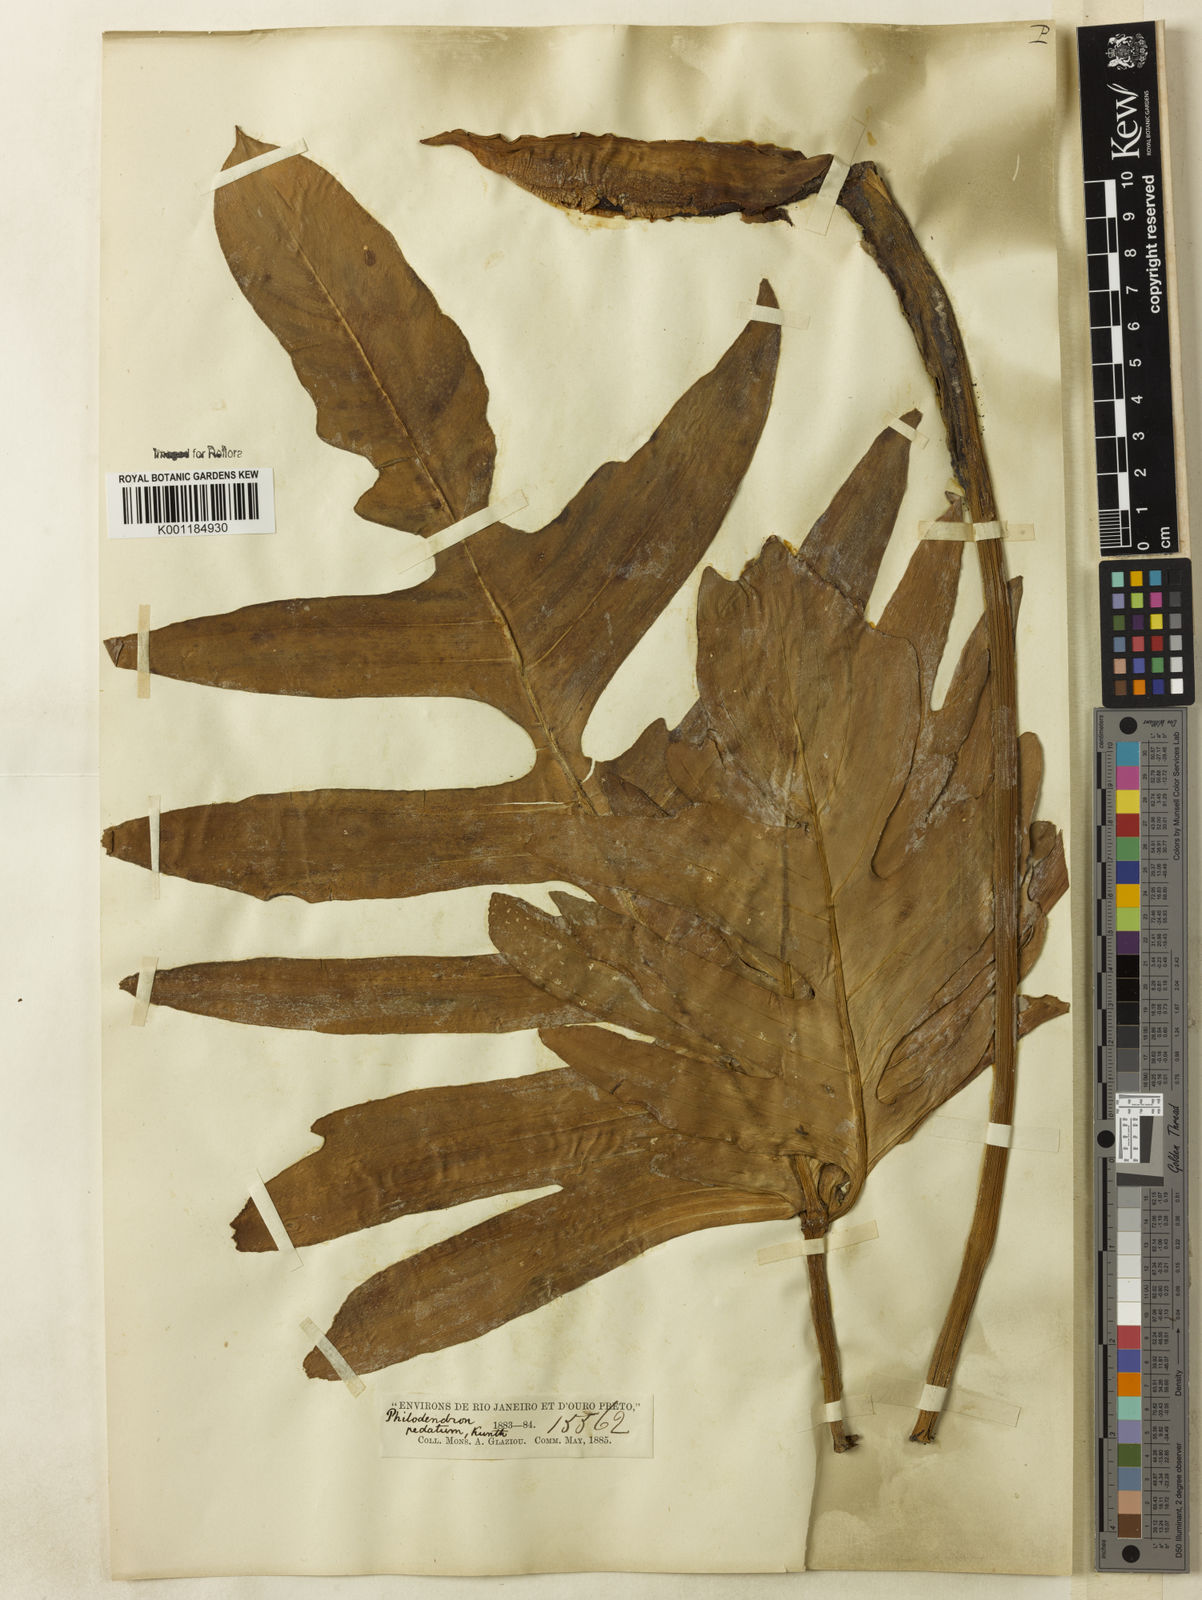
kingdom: Plantae
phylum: Tracheophyta
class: Liliopsida
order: Alismatales
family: Araceae
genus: Philodendron
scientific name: Philodendron pedatum
